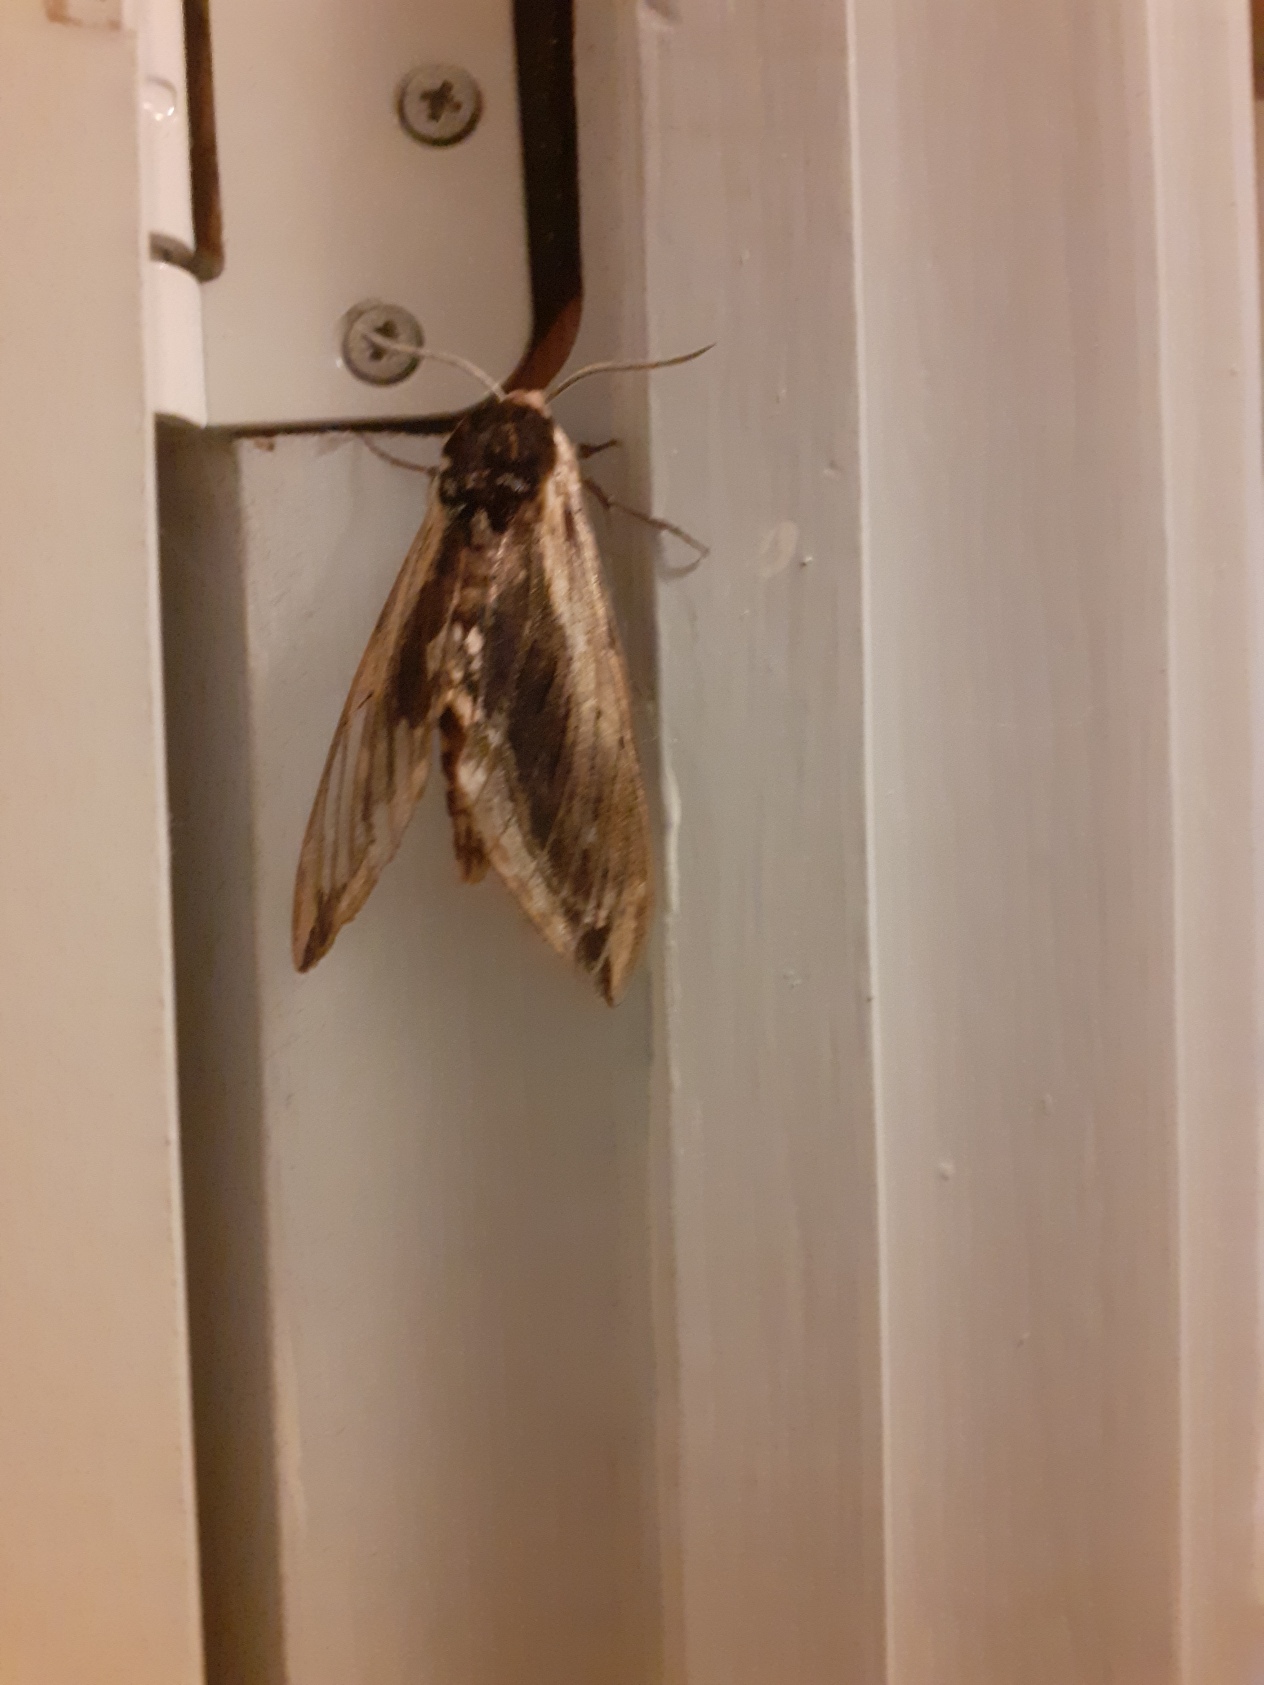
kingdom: Animalia
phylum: Arthropoda
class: Insecta
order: Lepidoptera
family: Sphingidae
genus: Sphinx
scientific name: Sphinx ligustri
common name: Ligustersværmer
